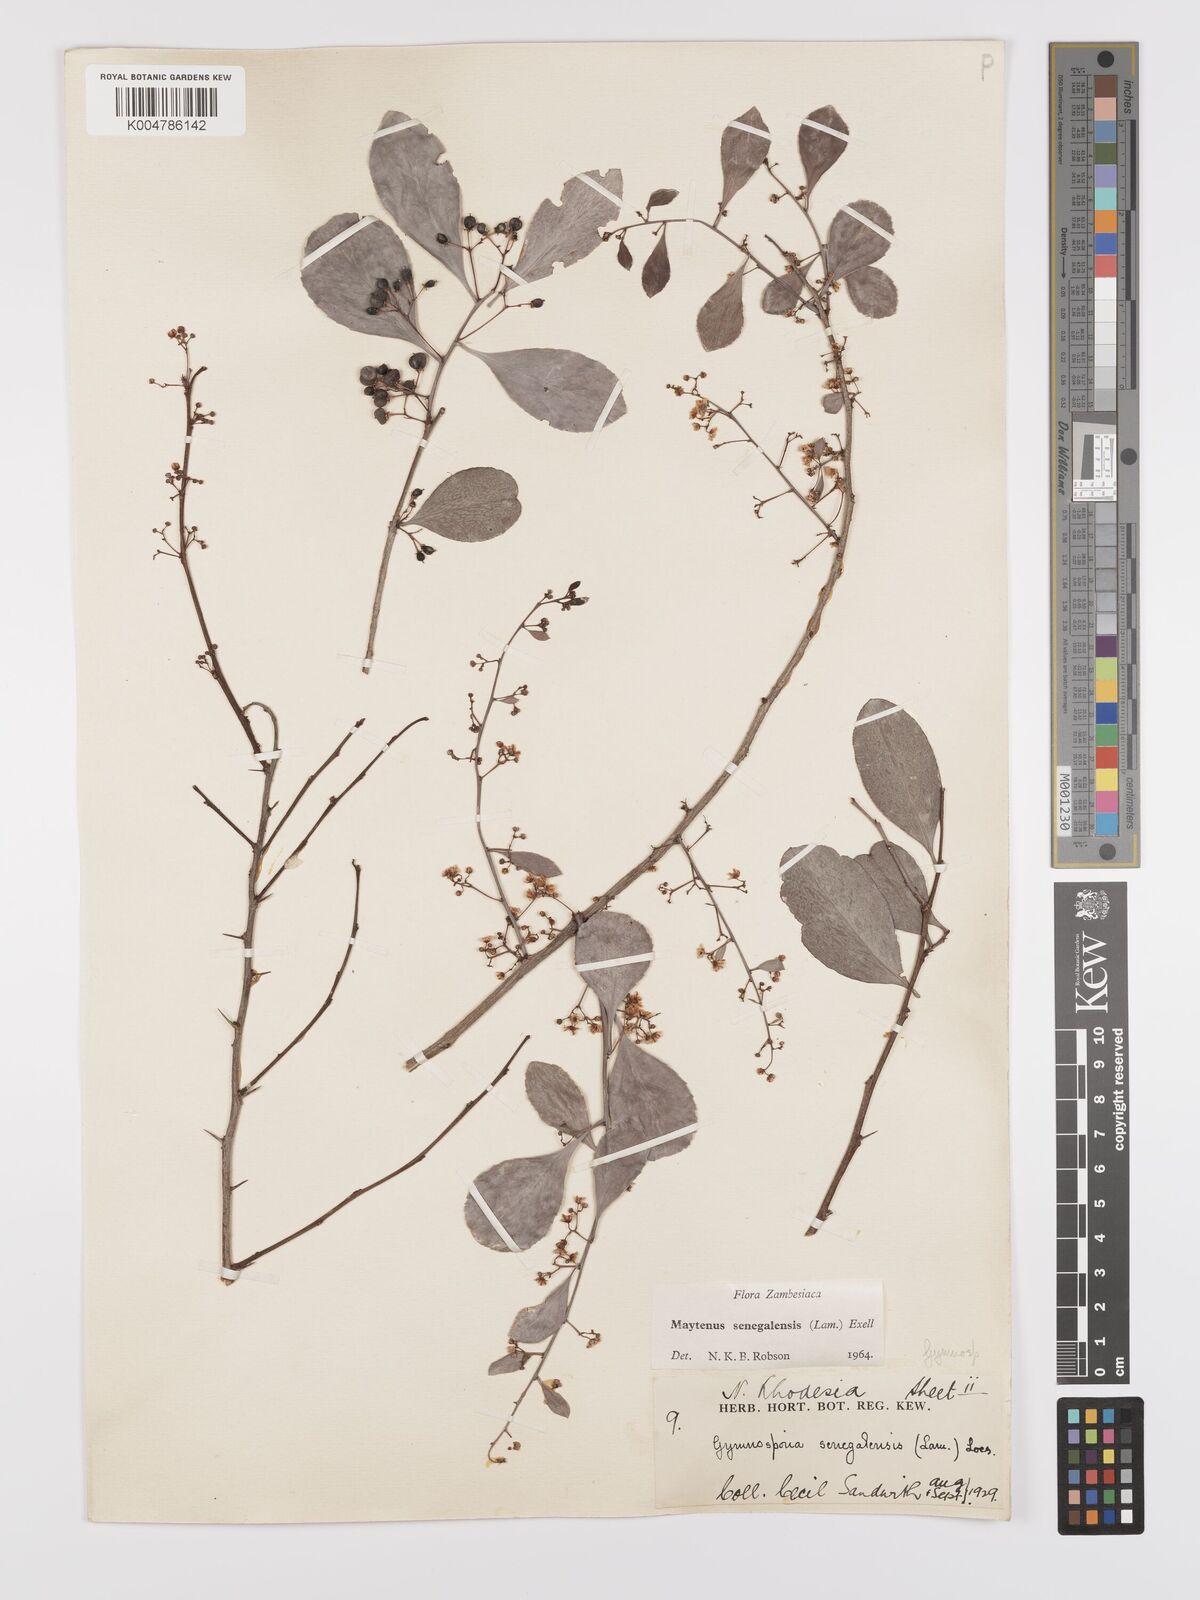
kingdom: Plantae
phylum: Tracheophyta
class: Magnoliopsida
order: Celastrales
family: Celastraceae
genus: Gymnosporia
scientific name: Gymnosporia senegalensis
